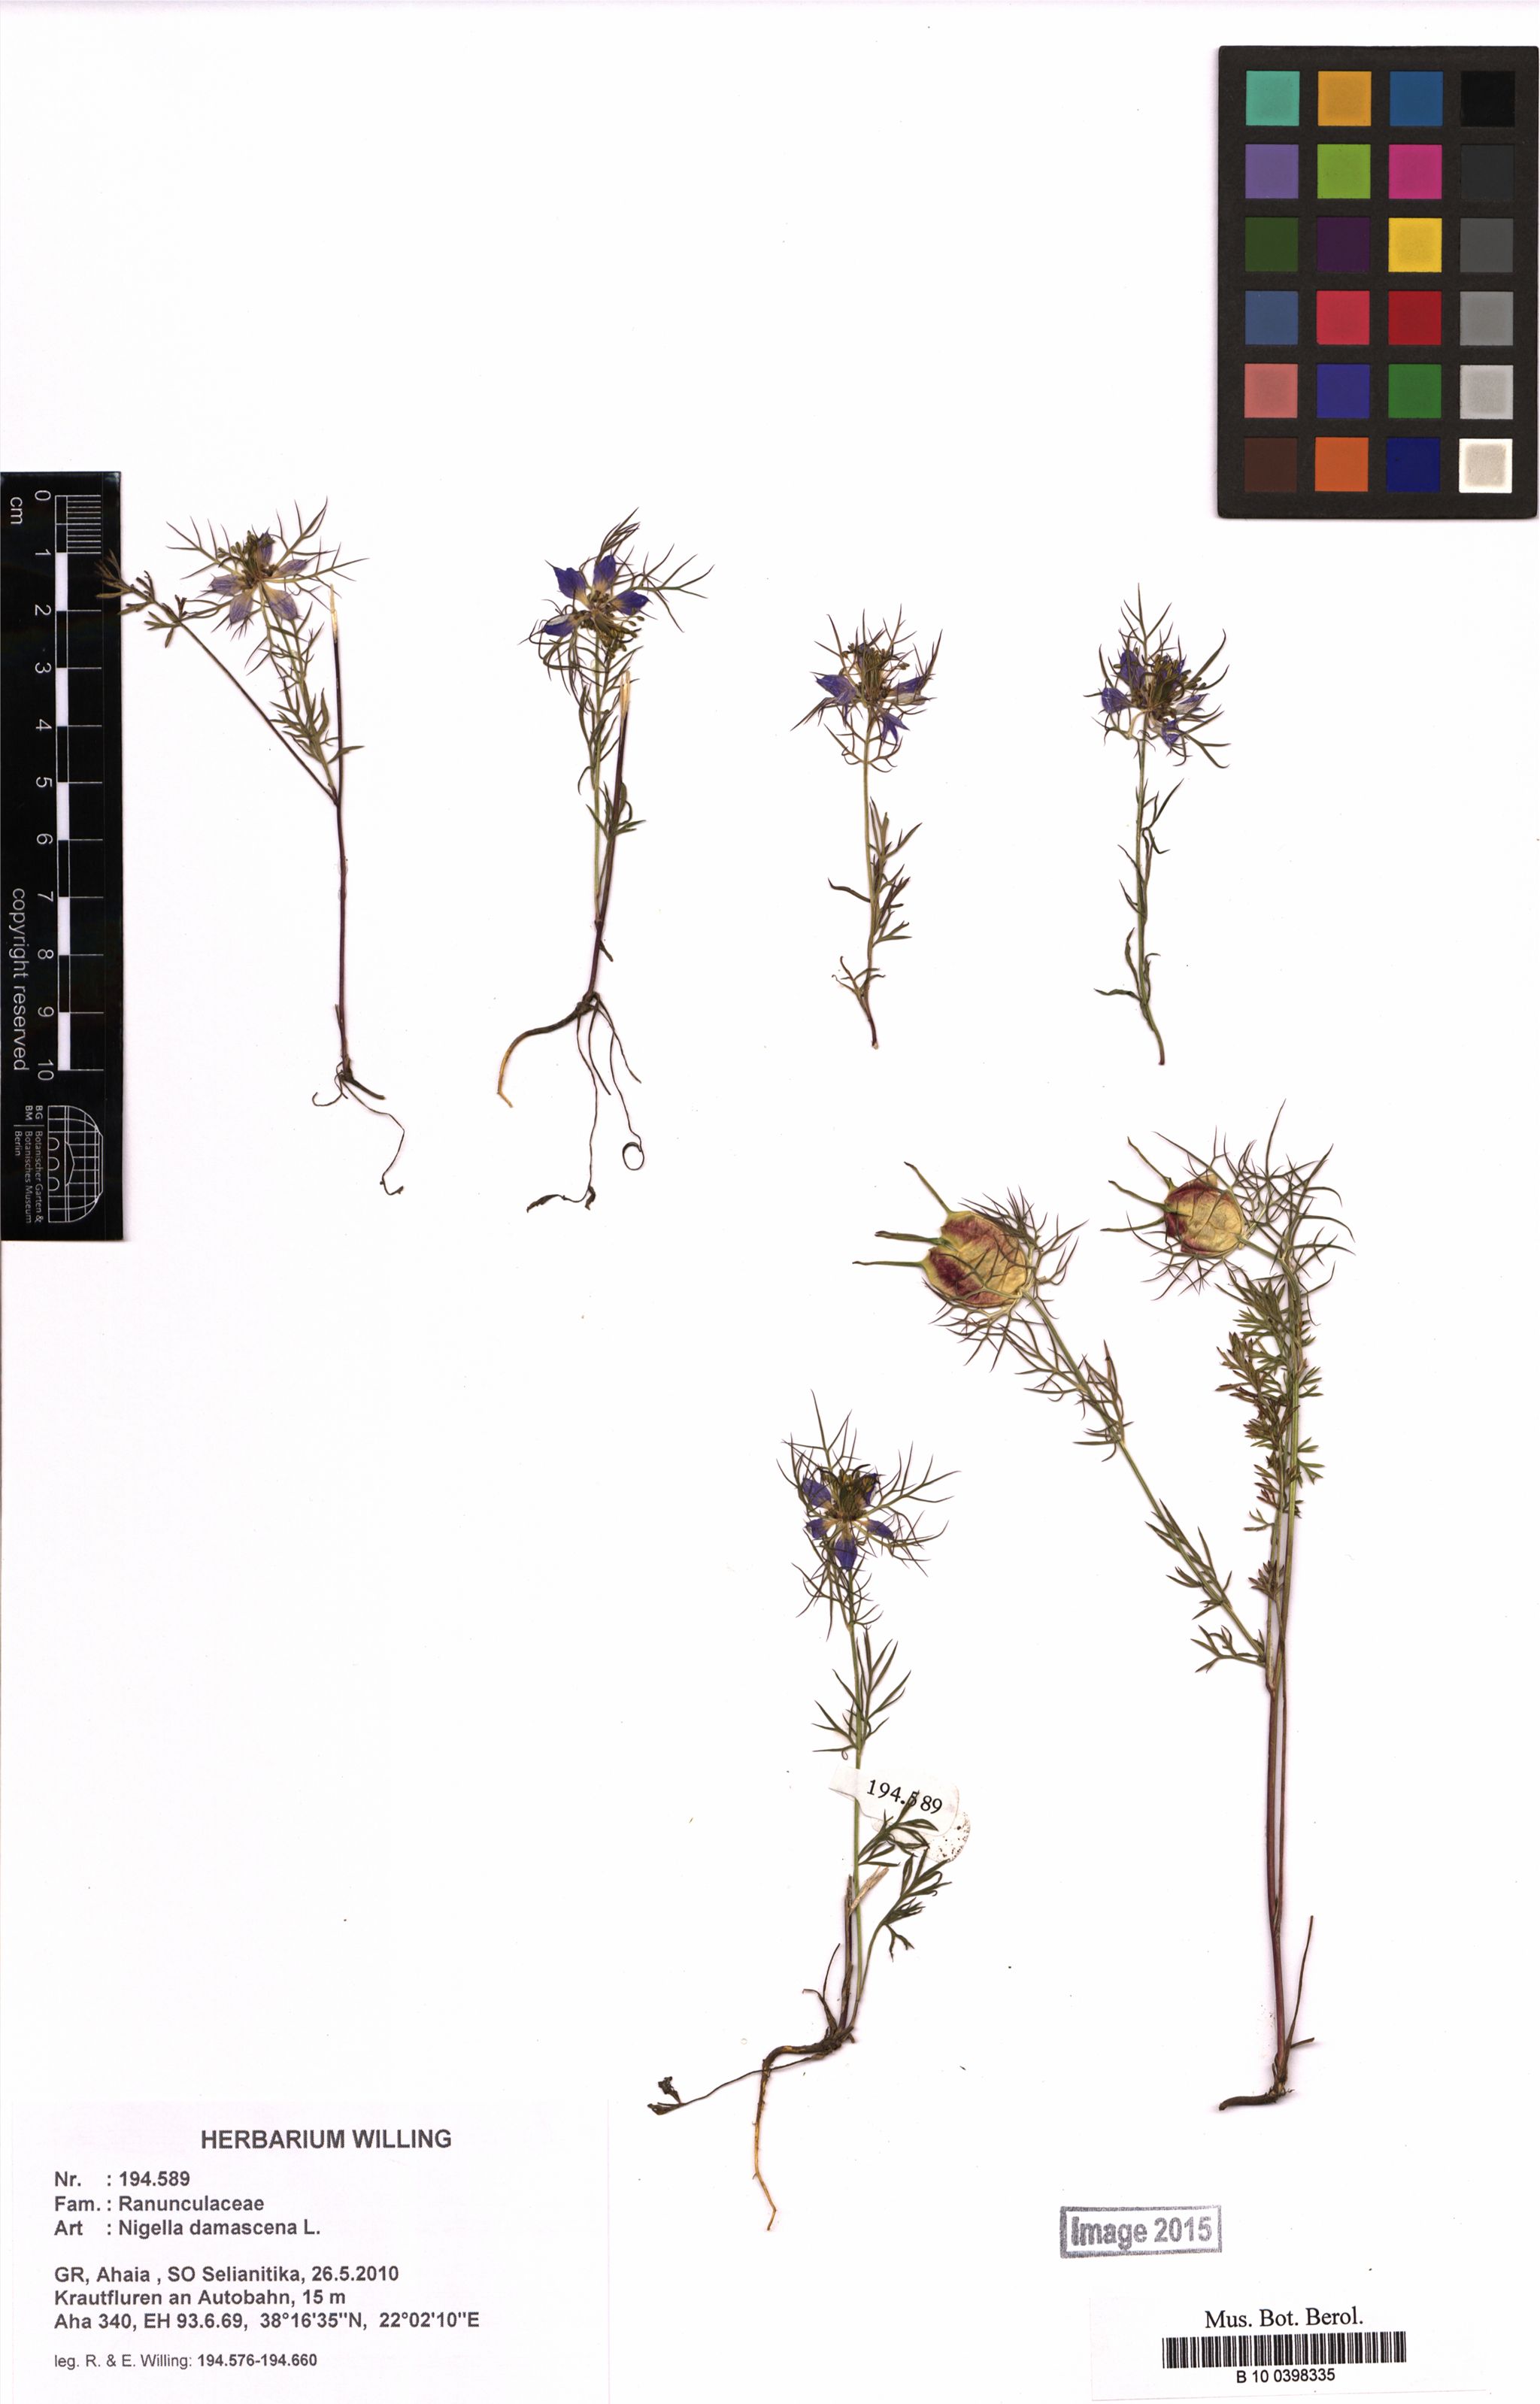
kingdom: Plantae
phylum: Tracheophyta
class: Magnoliopsida
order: Ranunculales
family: Ranunculaceae
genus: Nigella
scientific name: Nigella damascena
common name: Love-in-a-mist
